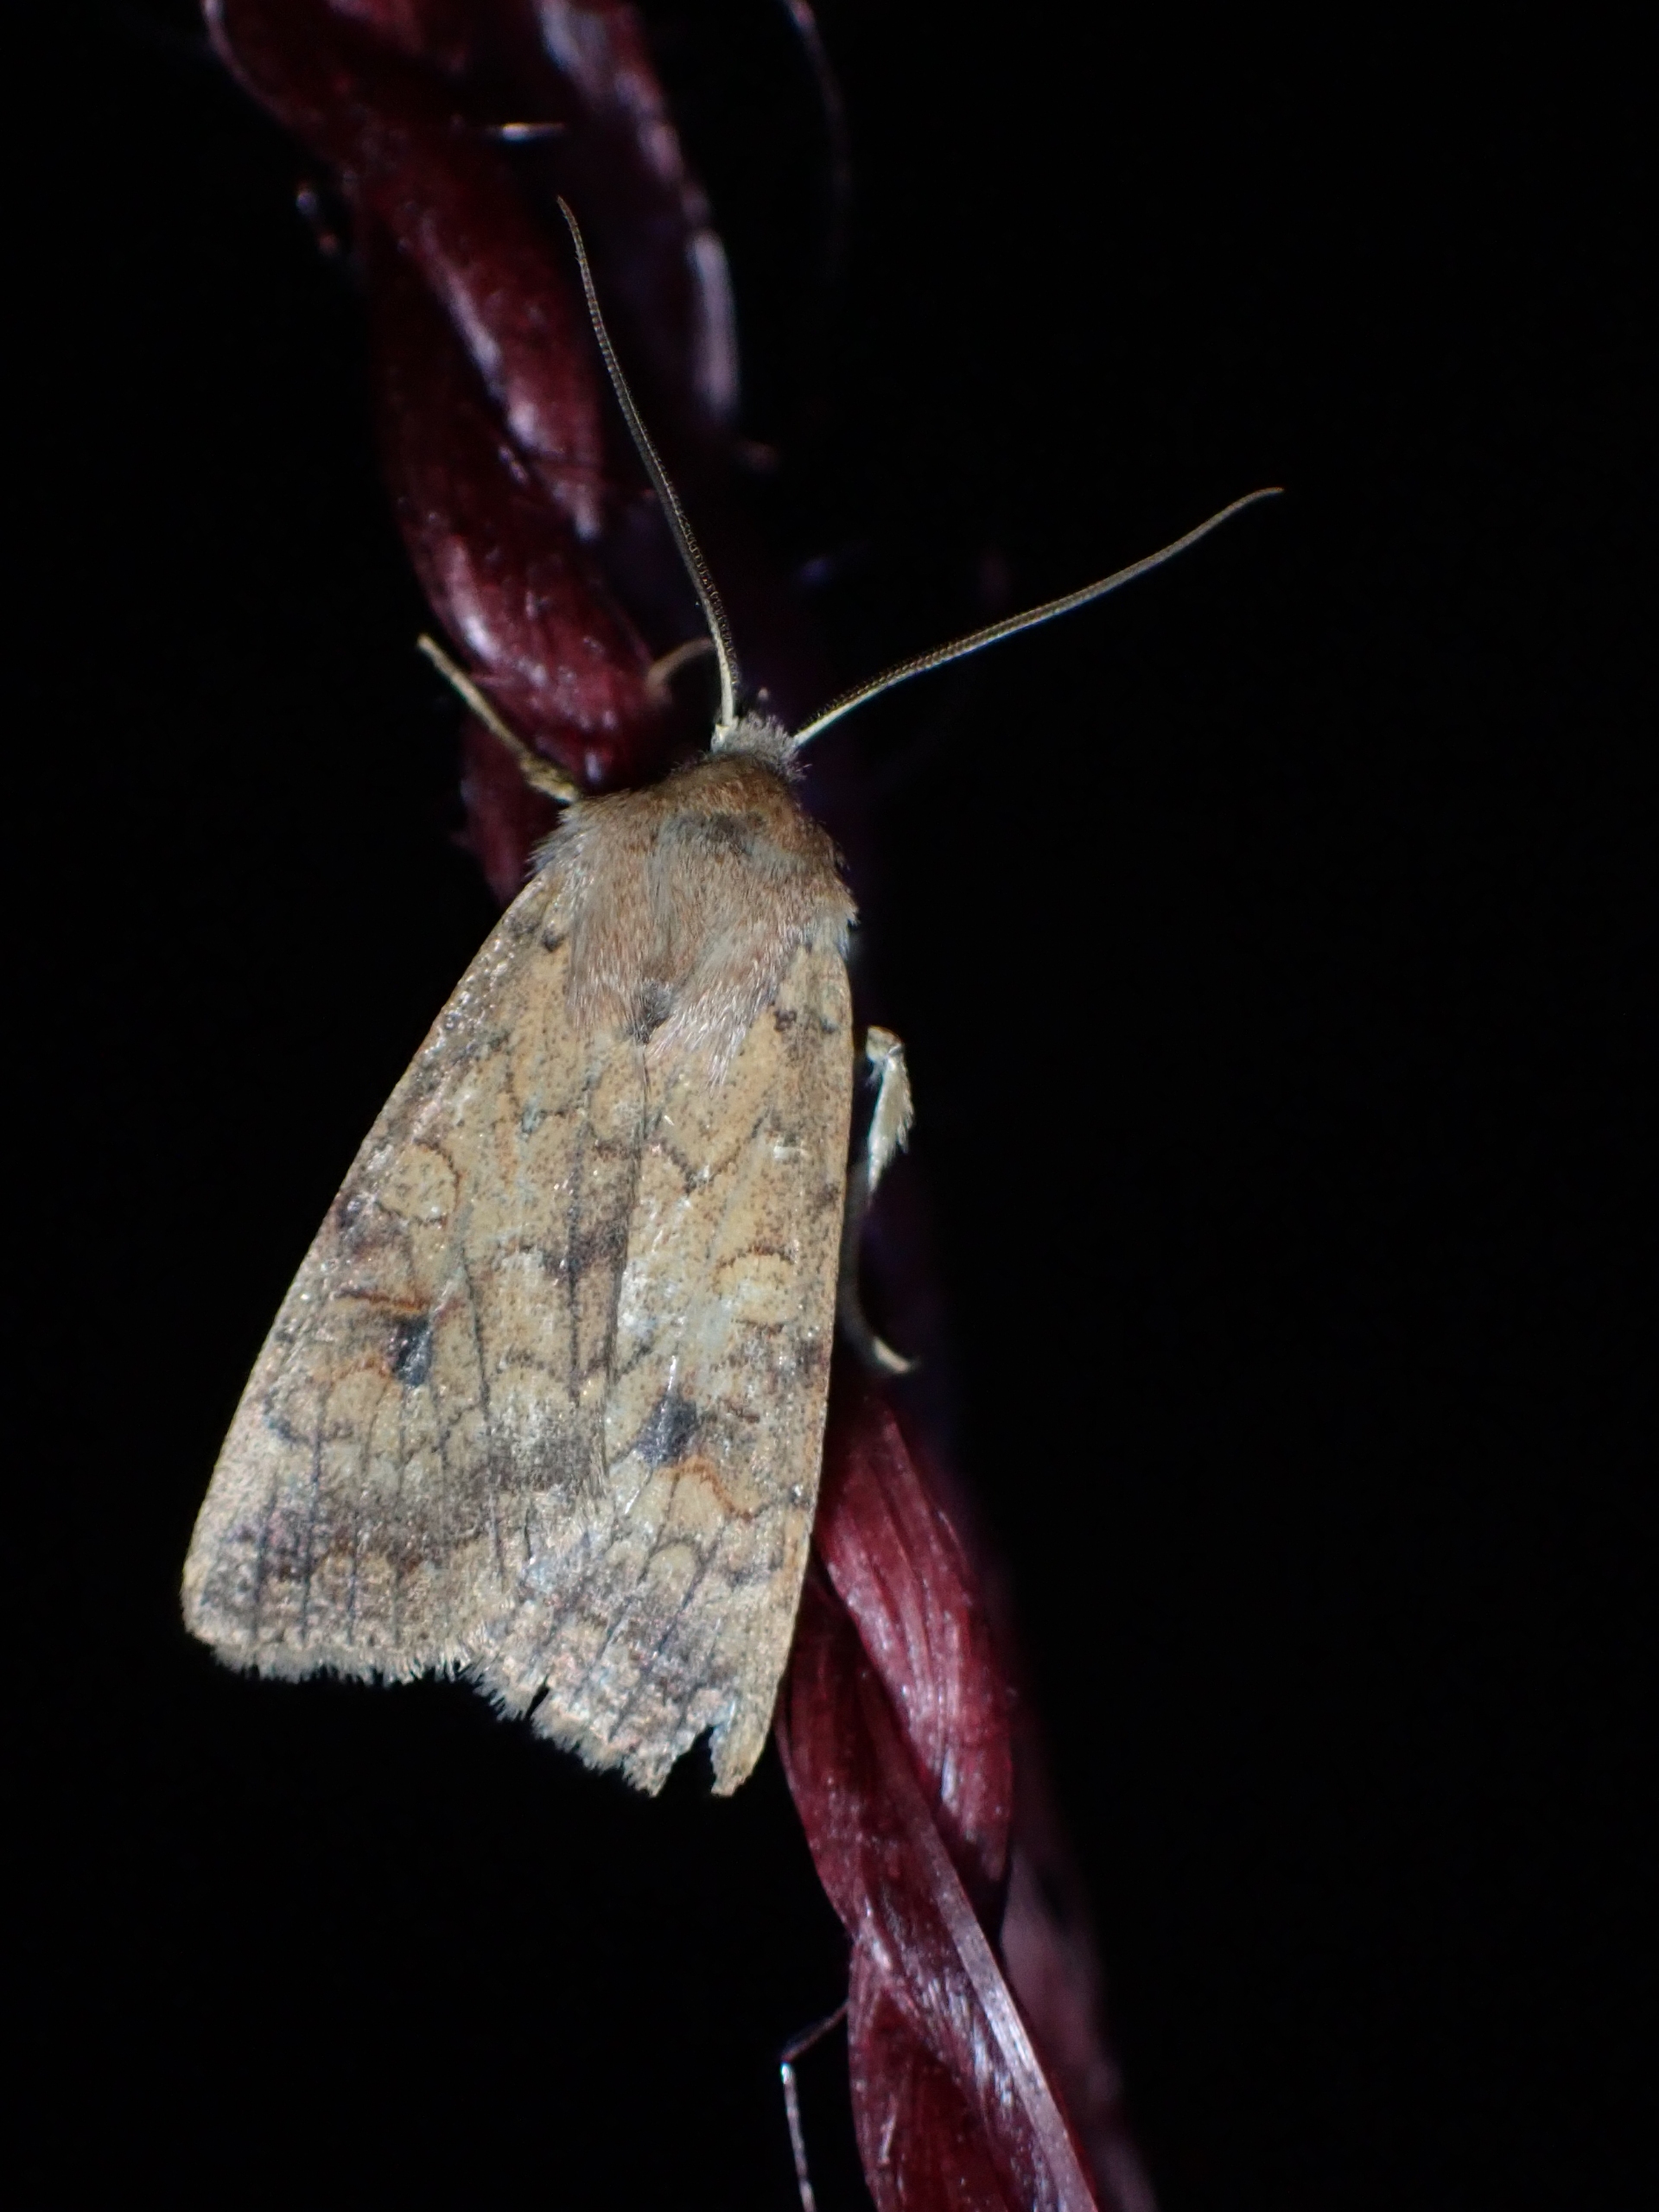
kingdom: Animalia
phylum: Arthropoda
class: Insecta
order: Lepidoptera
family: Noctuidae
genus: Sunira
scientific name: Sunira circellaris
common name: Cirkel-jordfarveugle
